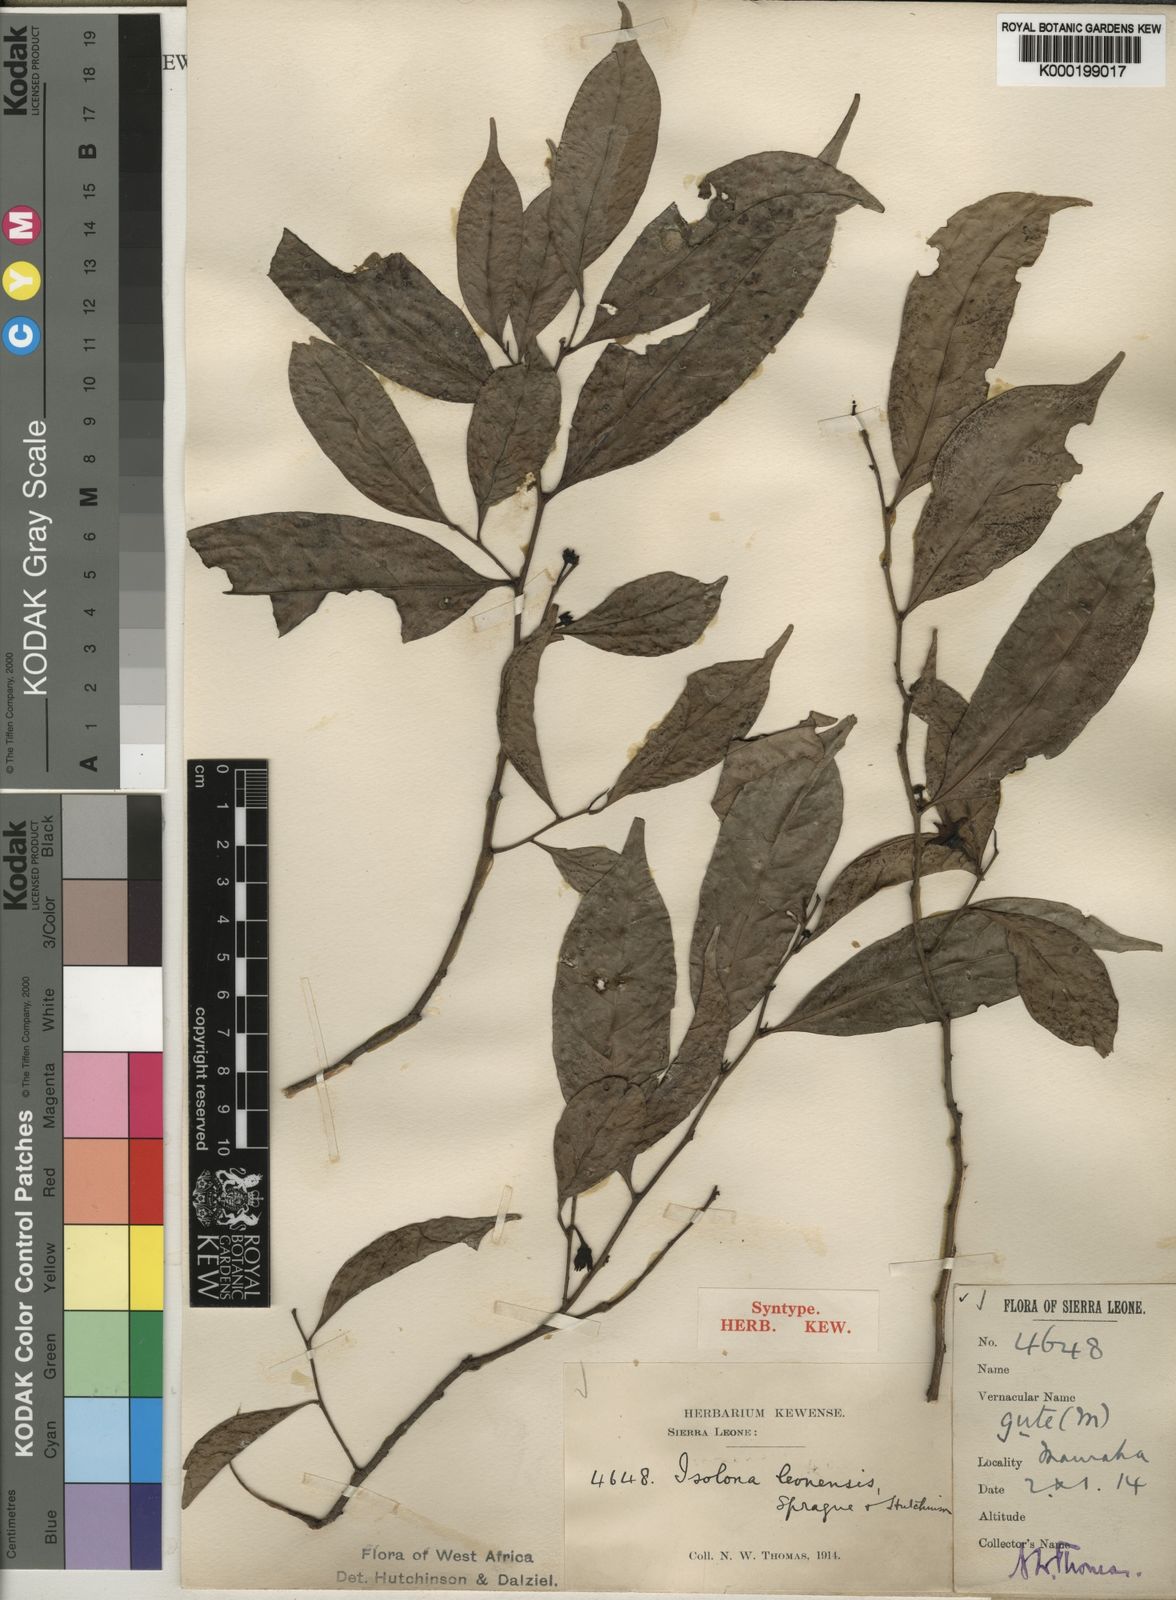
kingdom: Plantae
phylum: Tracheophyta
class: Magnoliopsida
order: Magnoliales
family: Annonaceae
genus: Isolona
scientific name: Isolona campanulata
